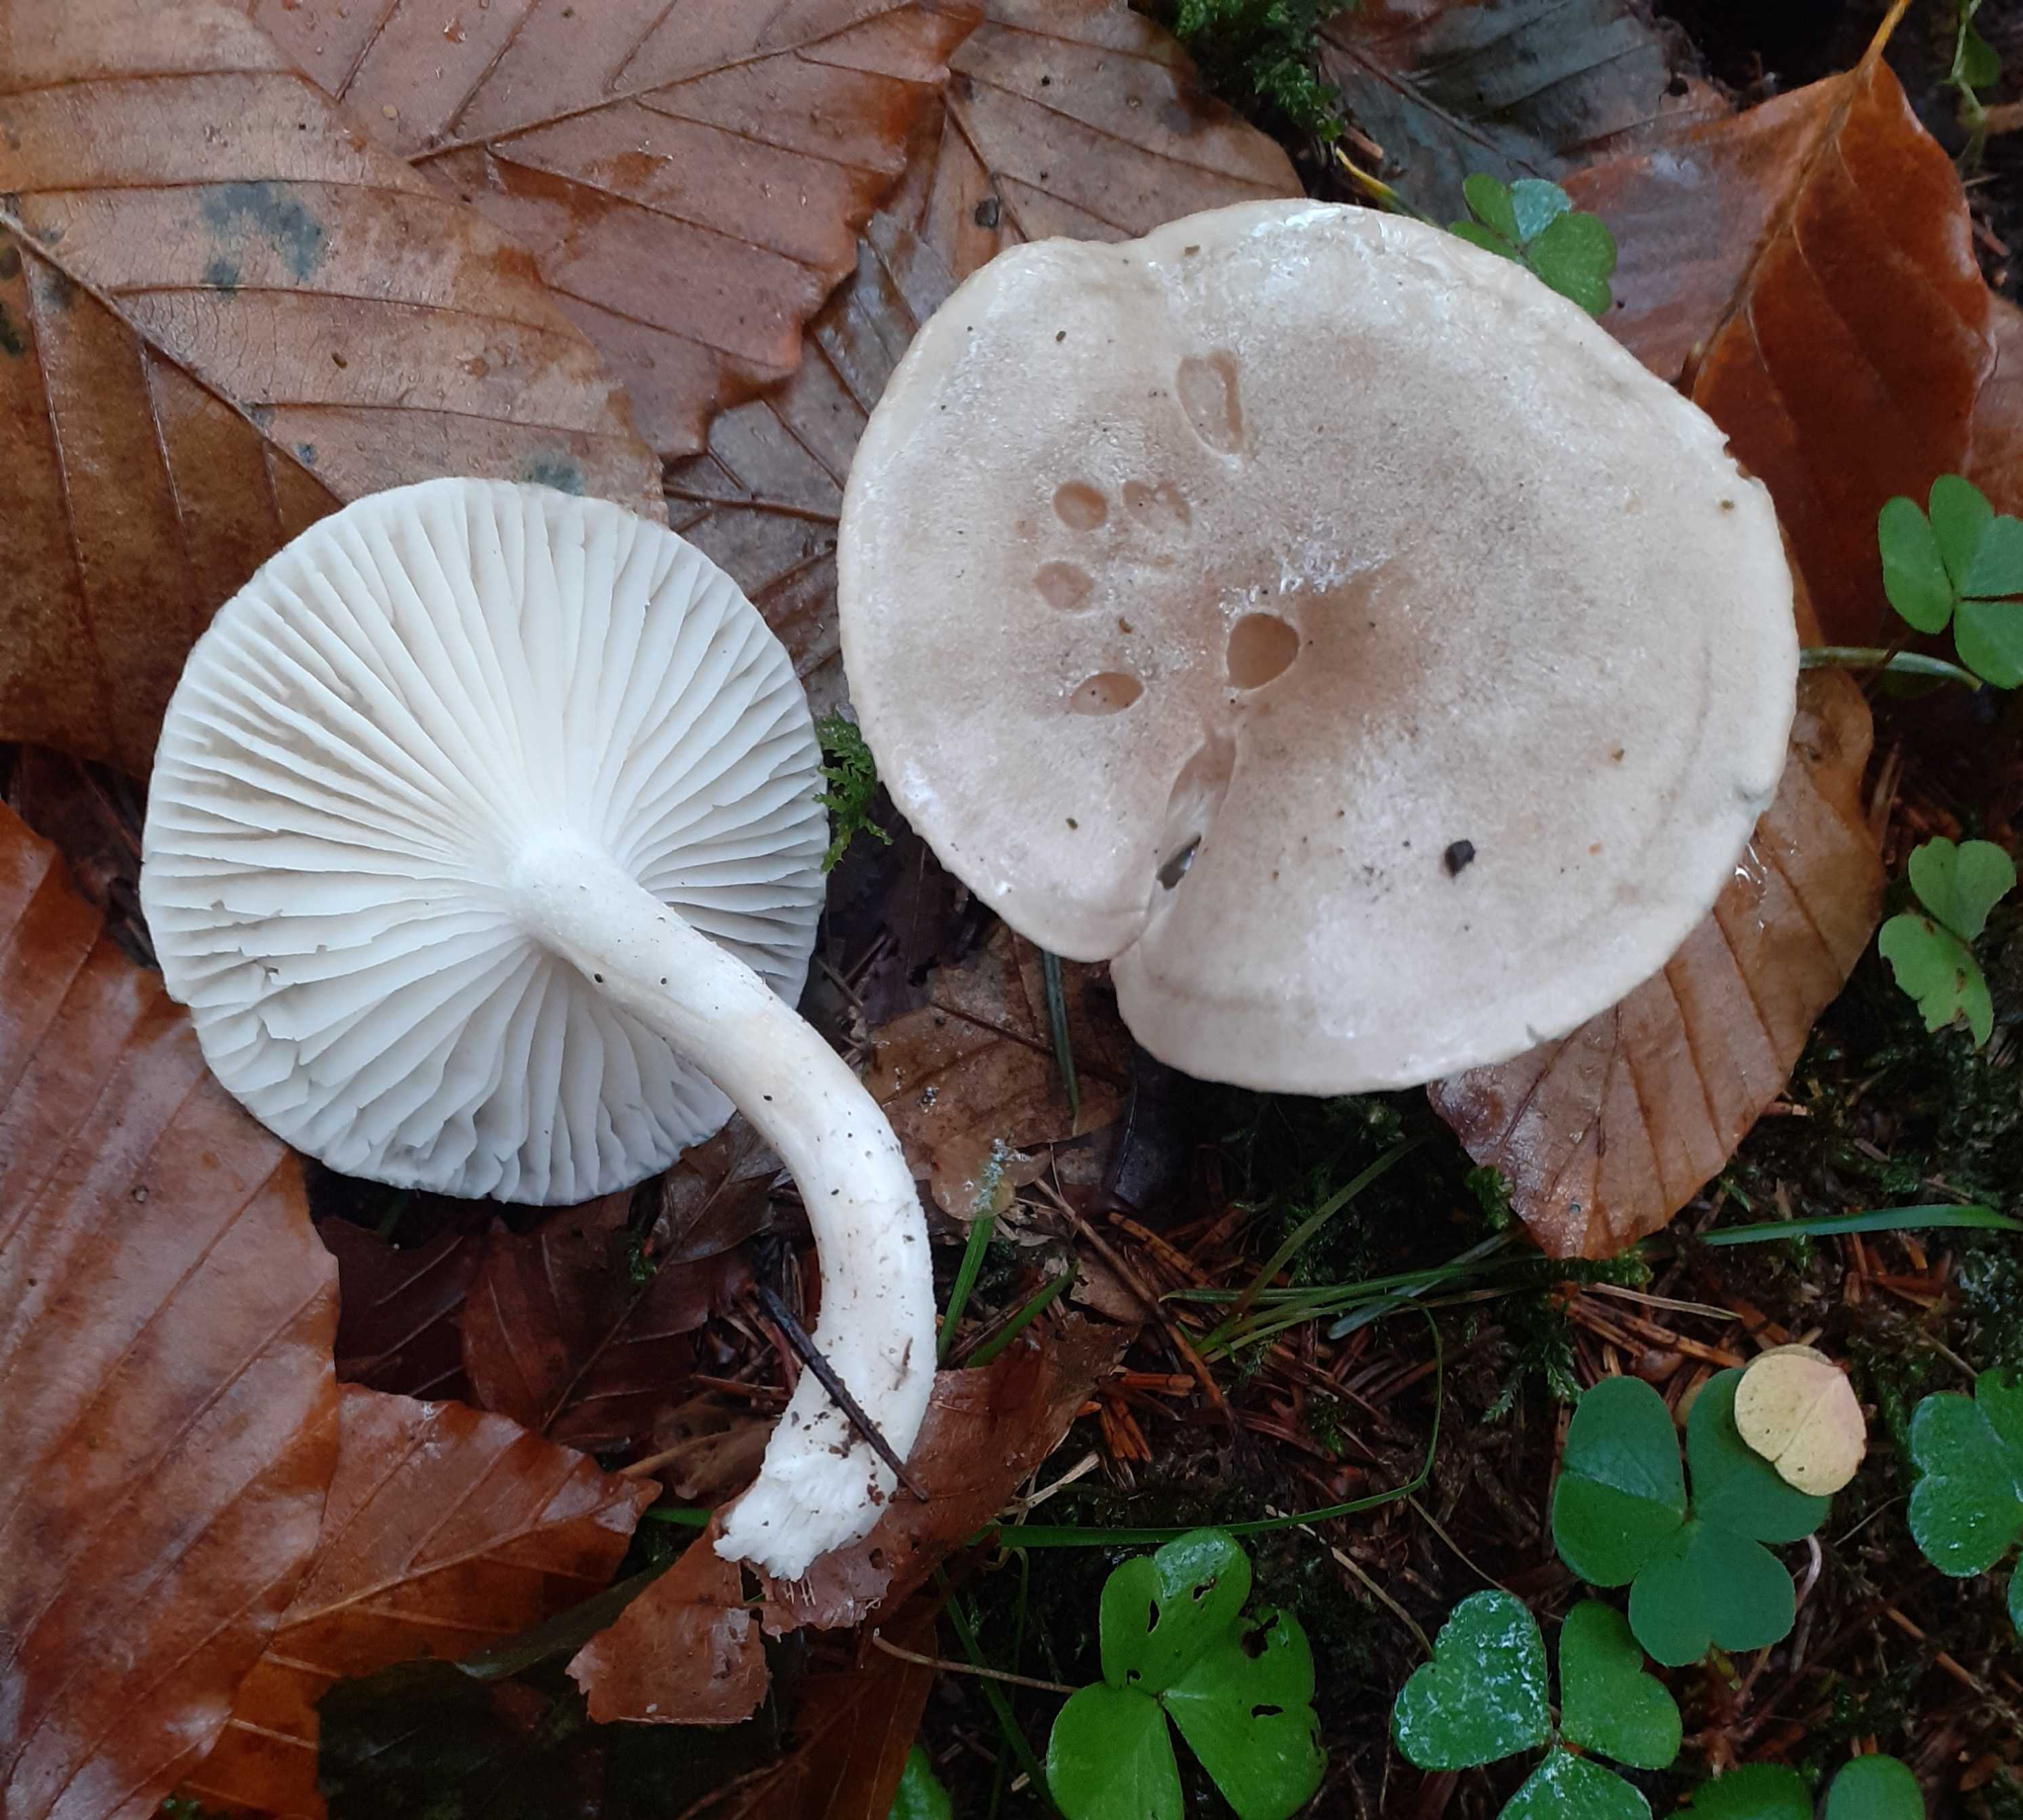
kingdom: Fungi
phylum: Basidiomycota
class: Agaricomycetes
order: Agaricales
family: Hygrophoraceae
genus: Hygrophorus
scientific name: Hygrophorus agathosmus
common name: vellugtende sneglehat
